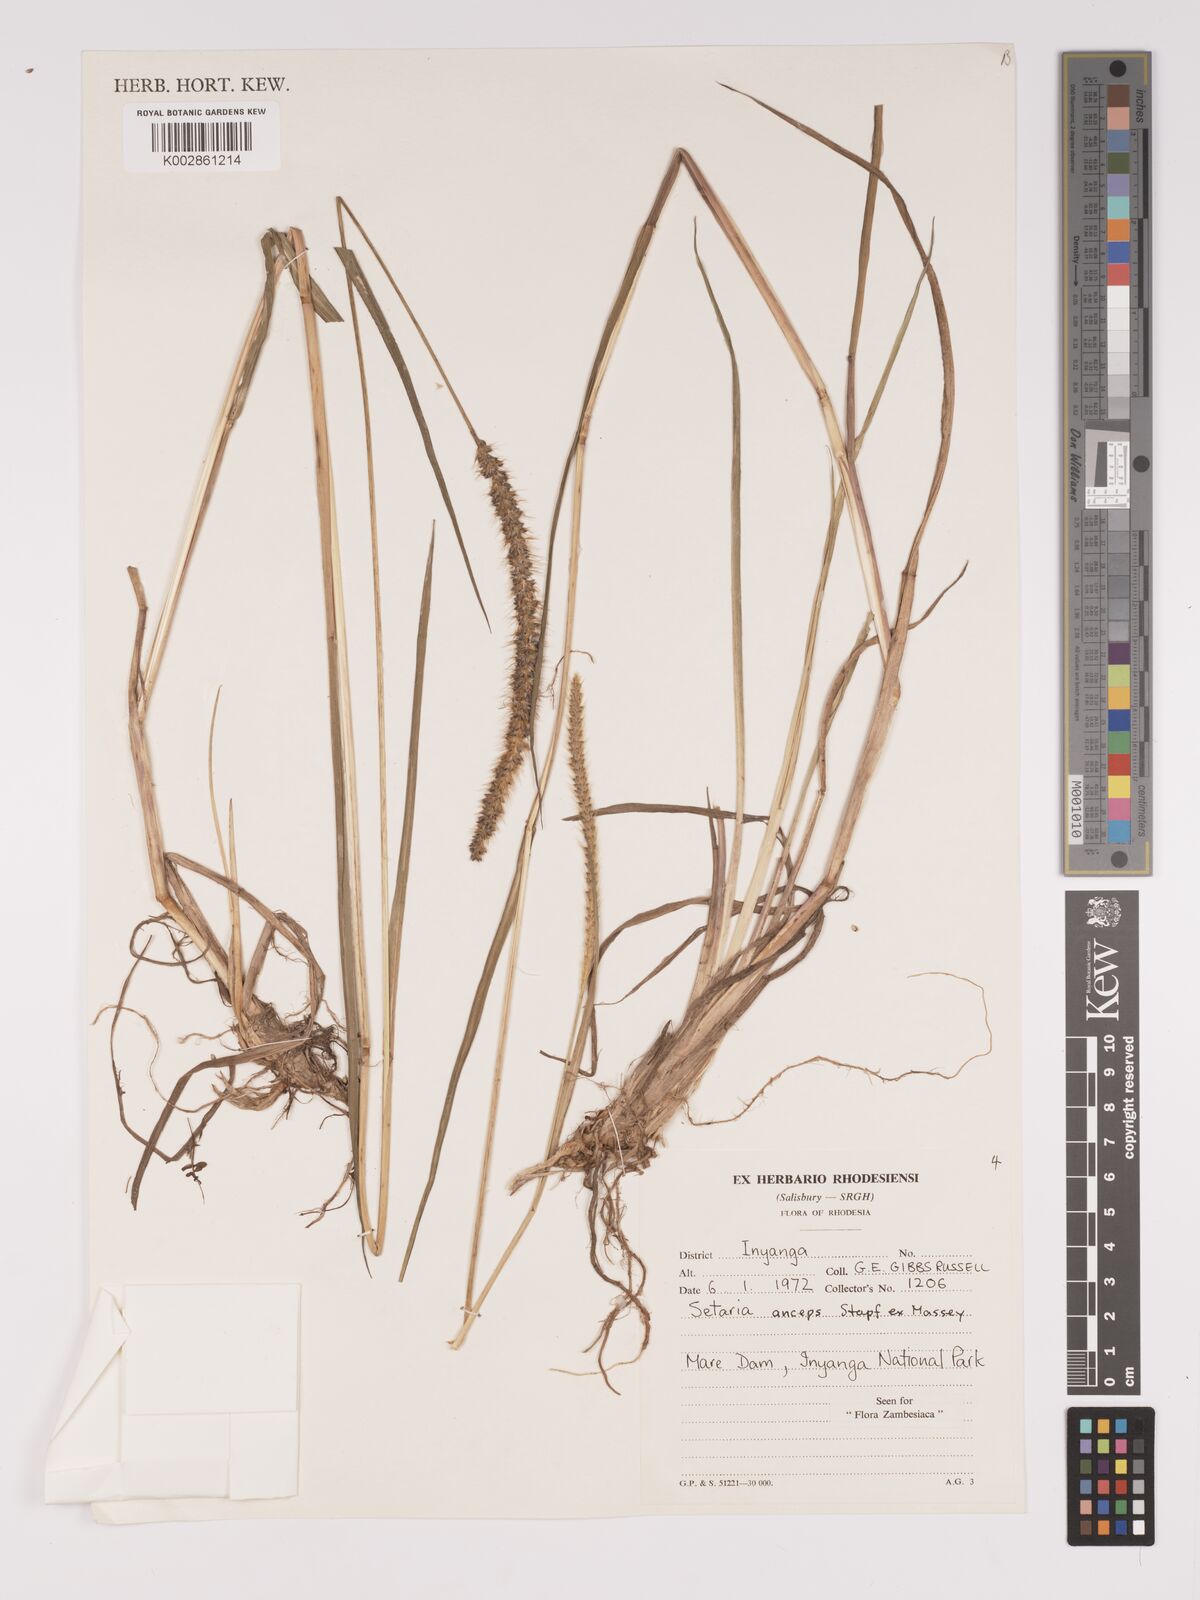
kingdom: Plantae
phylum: Tracheophyta
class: Liliopsida
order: Poales
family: Poaceae
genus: Setaria
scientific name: Setaria sphacelata
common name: African bristlegrass
